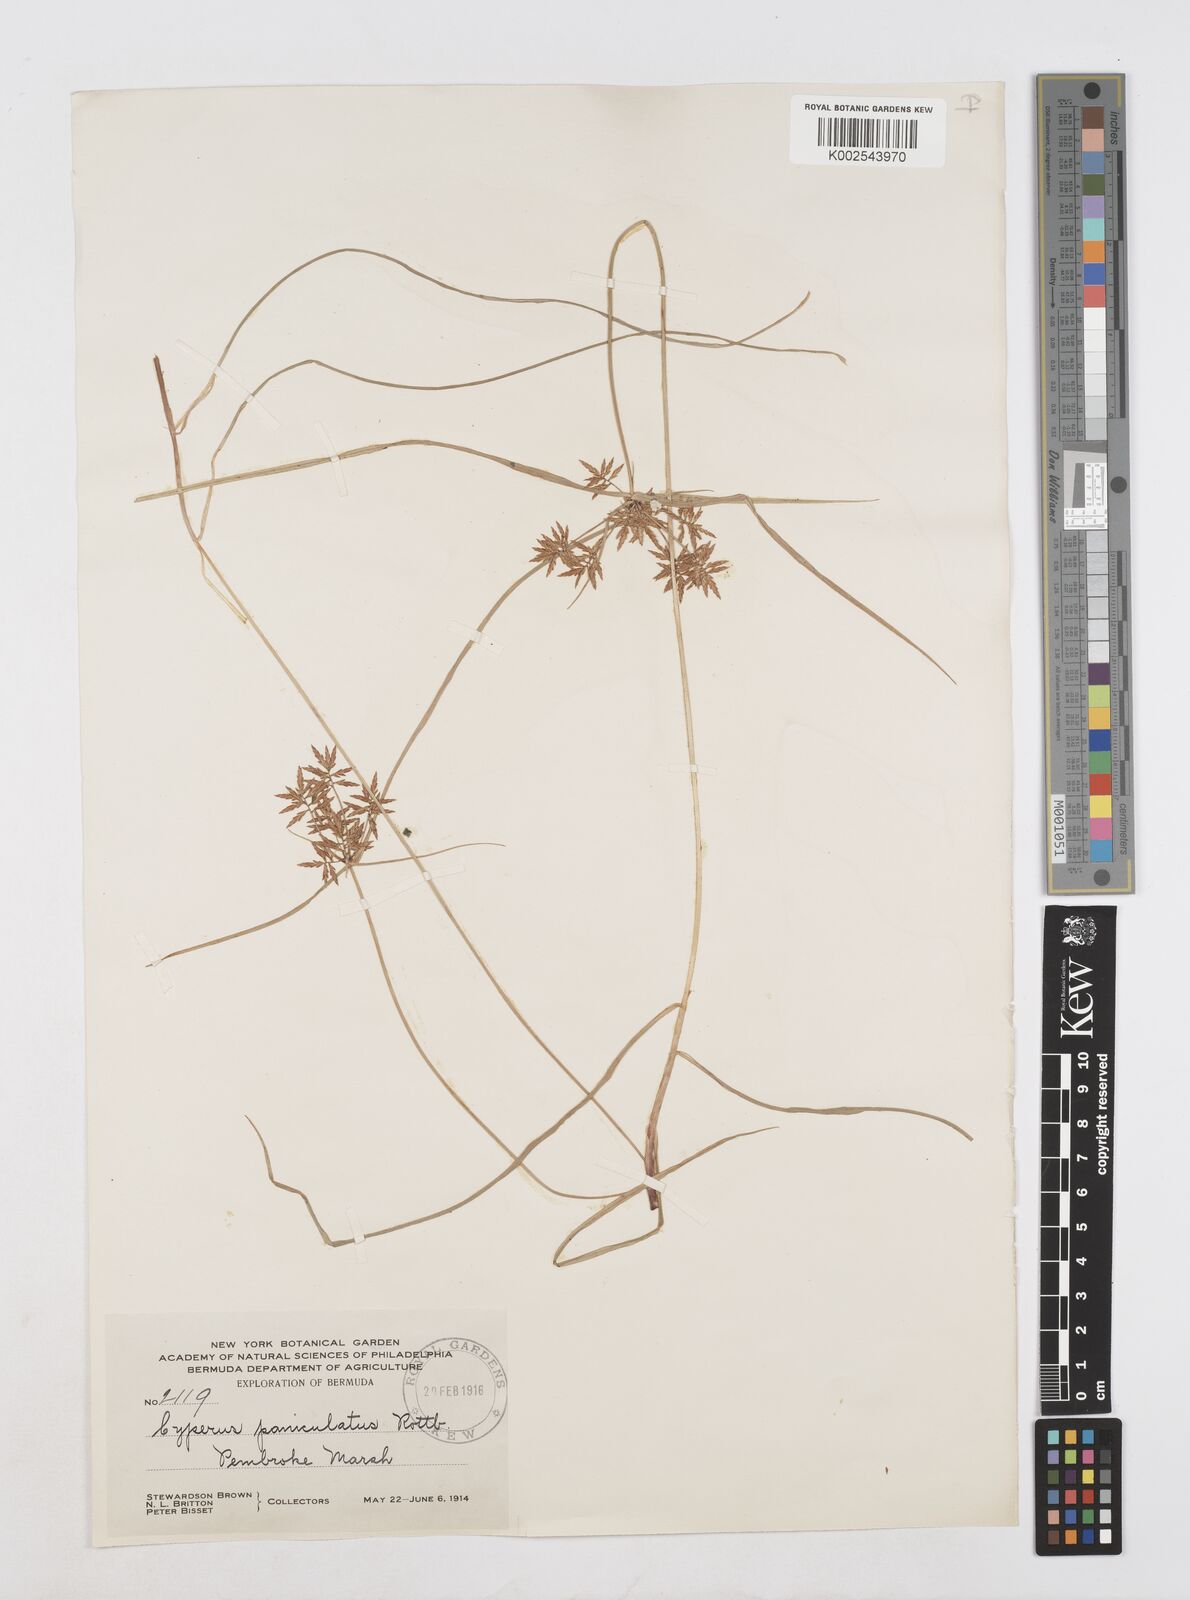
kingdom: Plantae
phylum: Tracheophyta
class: Liliopsida
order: Poales
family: Cyperaceae
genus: Cyperus
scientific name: Cyperus polystachyos
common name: Bunchy flat sedge
